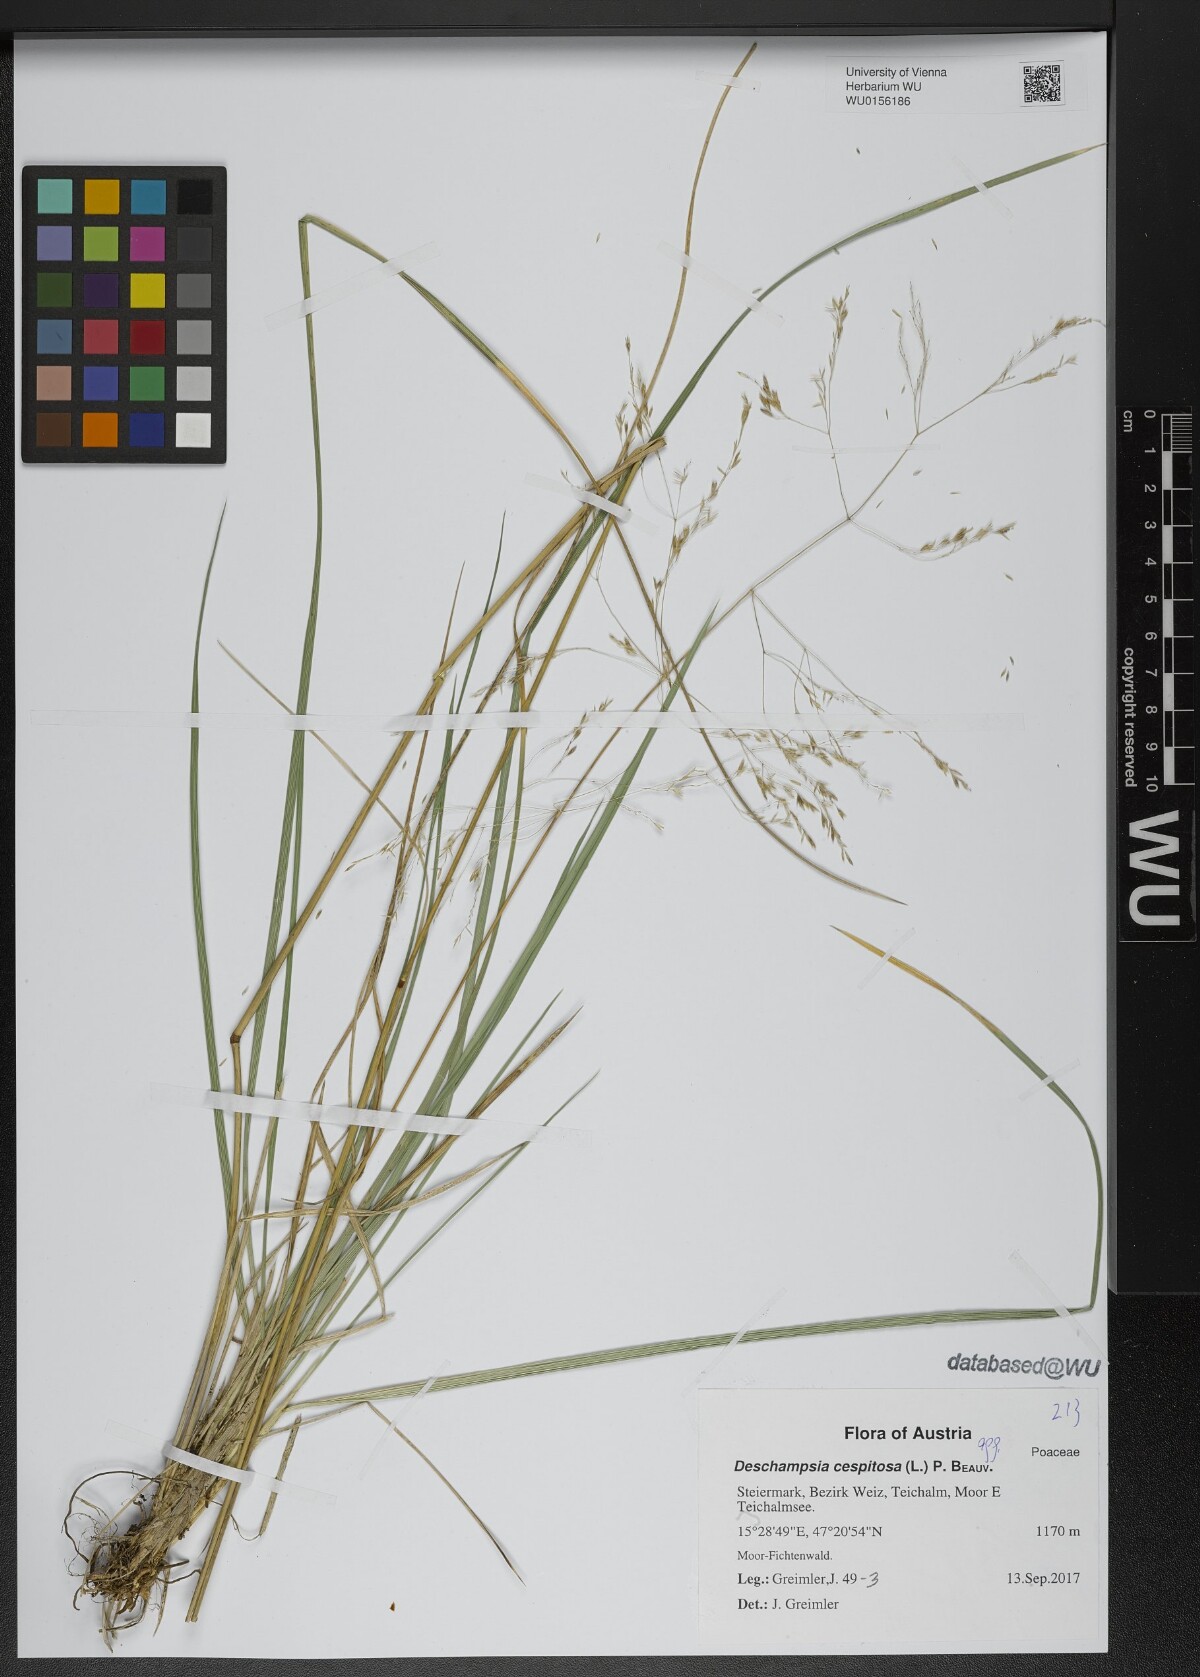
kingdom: Plantae
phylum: Tracheophyta
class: Liliopsida
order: Poales
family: Poaceae
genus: Deschampsia
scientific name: Deschampsia cespitosa
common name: Tufted hair-grass
